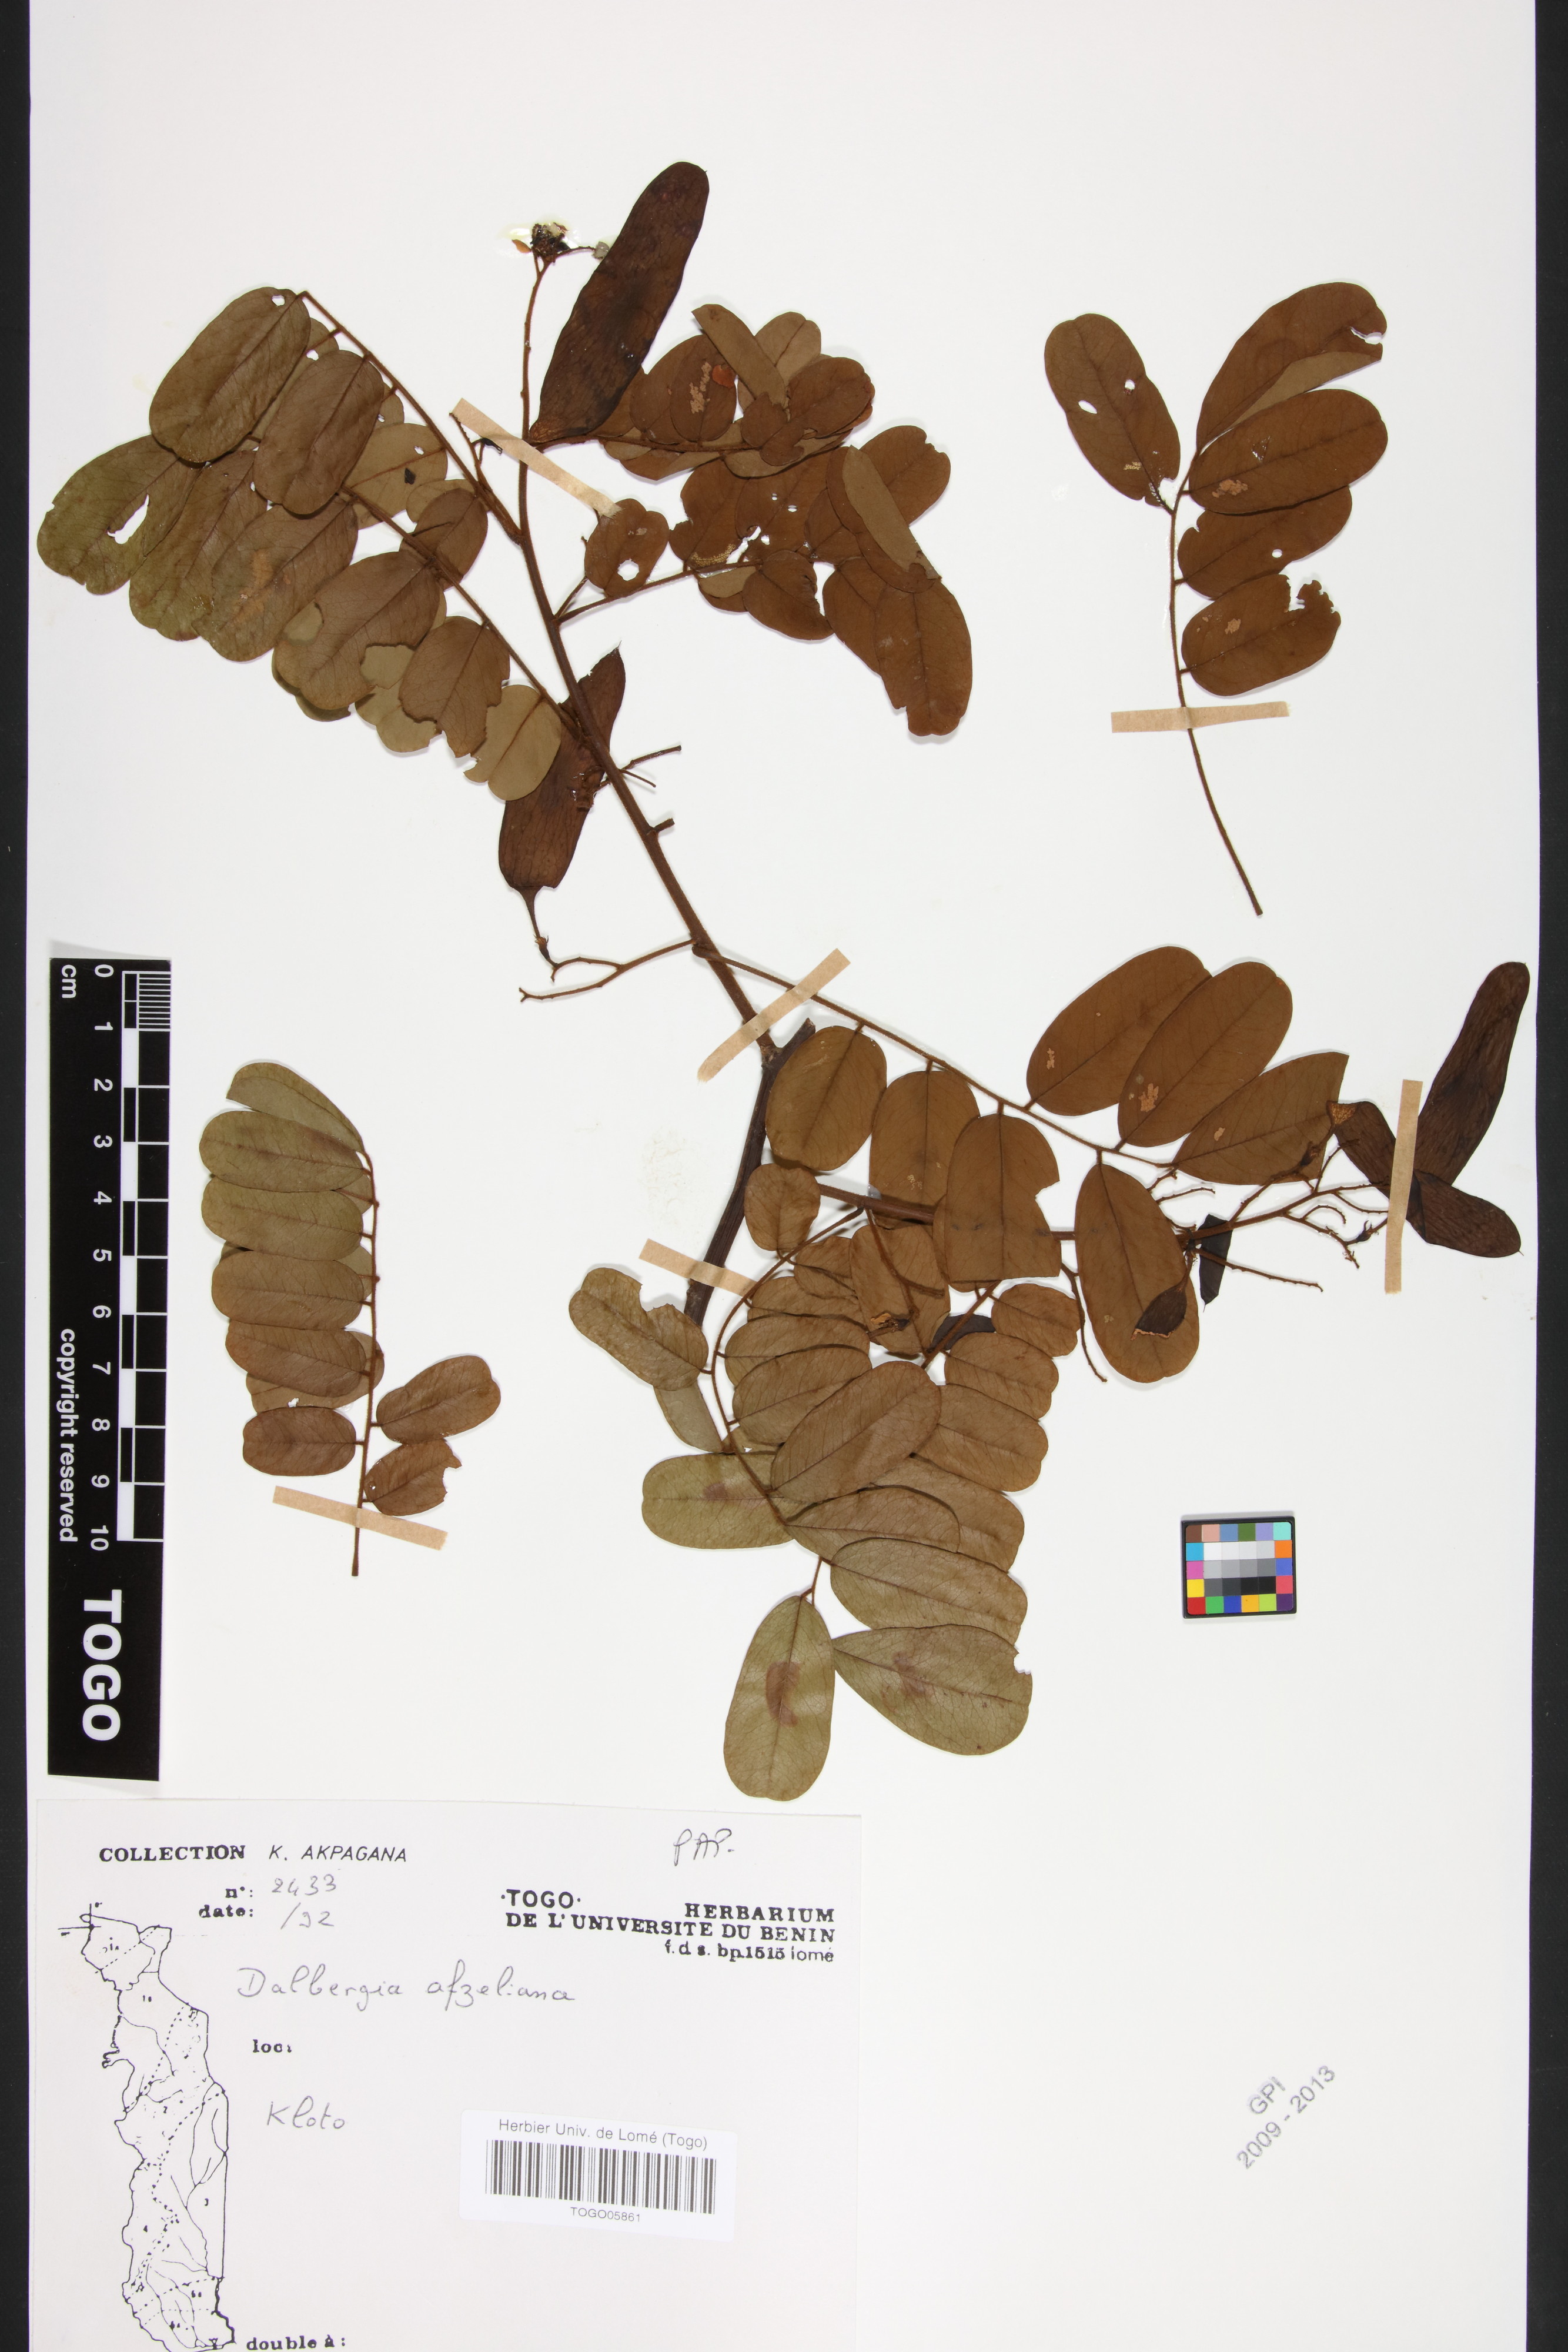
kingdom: Plantae
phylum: Tracheophyta
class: Magnoliopsida
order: Fabales
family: Fabaceae
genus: Dalbergia
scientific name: Dalbergia afzeliana
